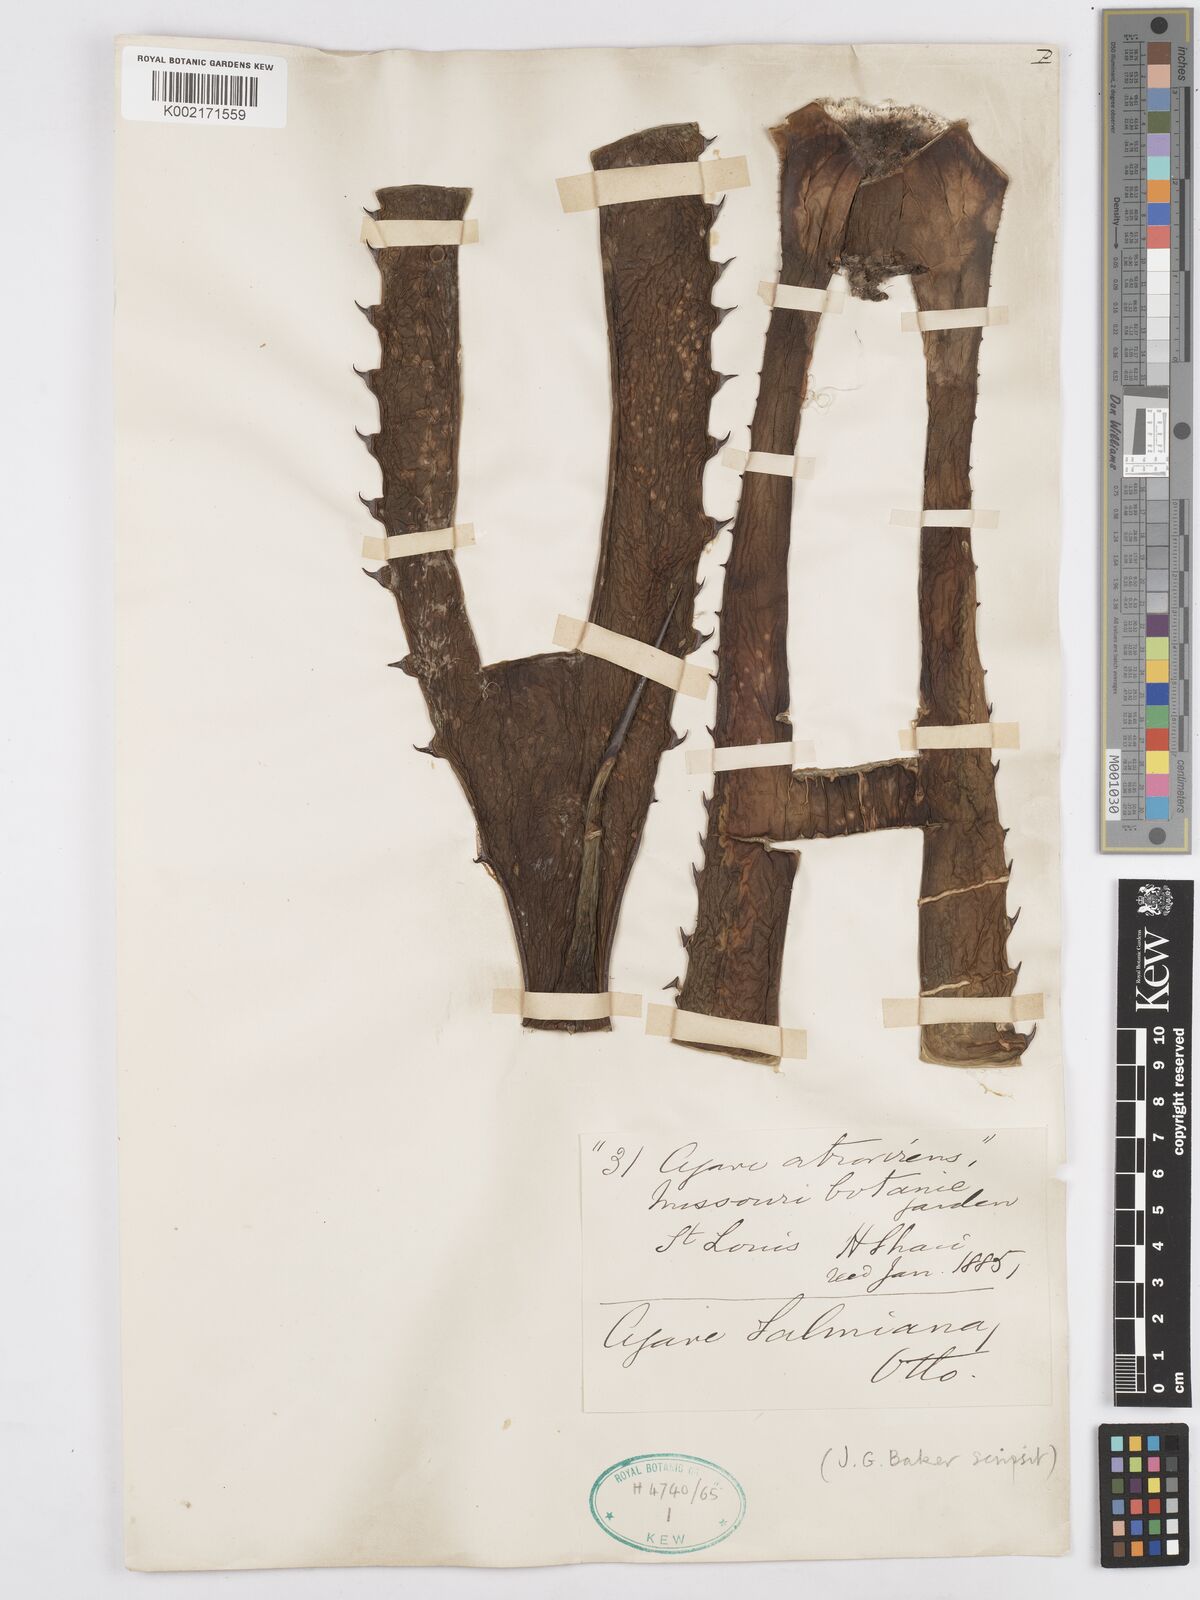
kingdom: Plantae
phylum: Tracheophyta
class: Liliopsida
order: Asparagales
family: Asparagaceae
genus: Agave
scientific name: Agave salmiana
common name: Pulque agave
